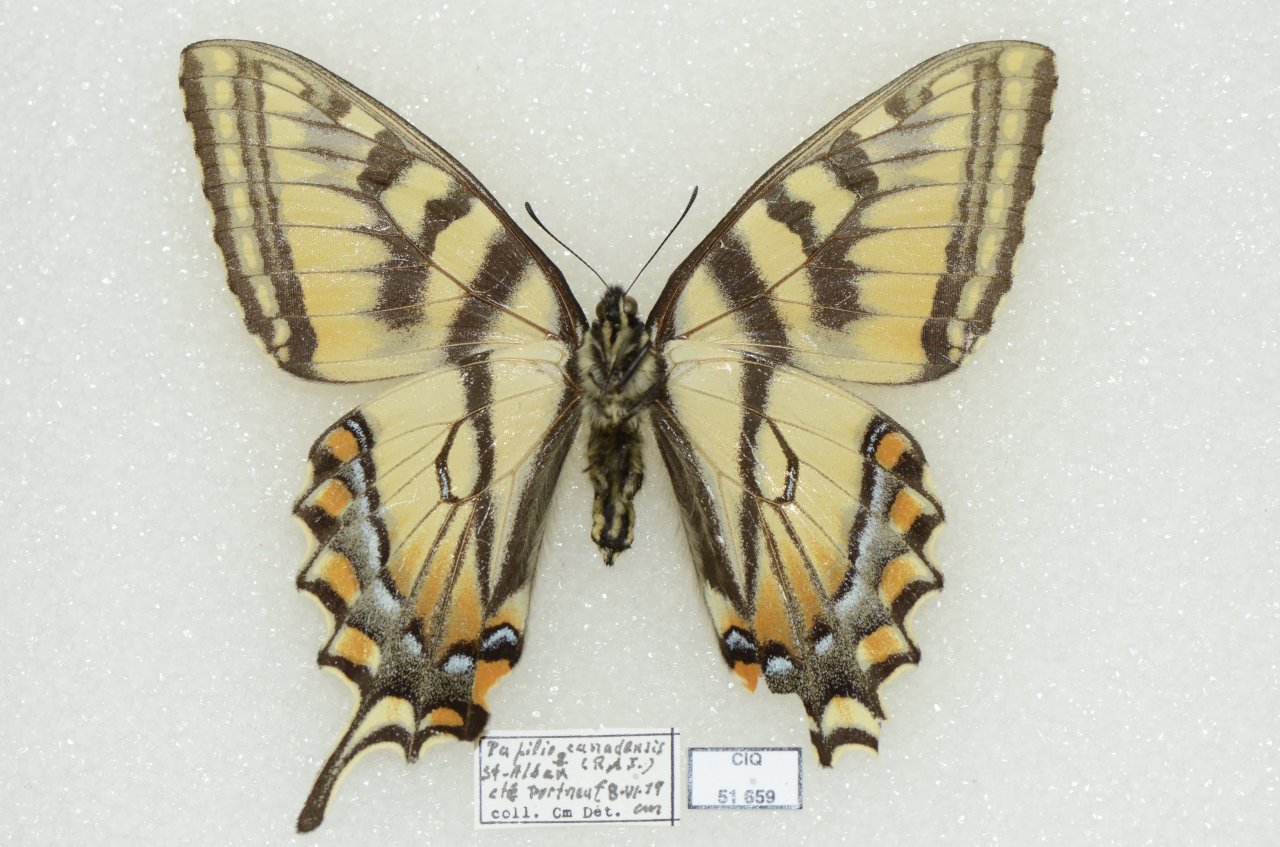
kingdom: Animalia
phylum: Arthropoda
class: Insecta
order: Lepidoptera
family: Papilionidae
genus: Pterourus
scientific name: Pterourus canadensis
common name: Canadian Tiger Swallowtail
